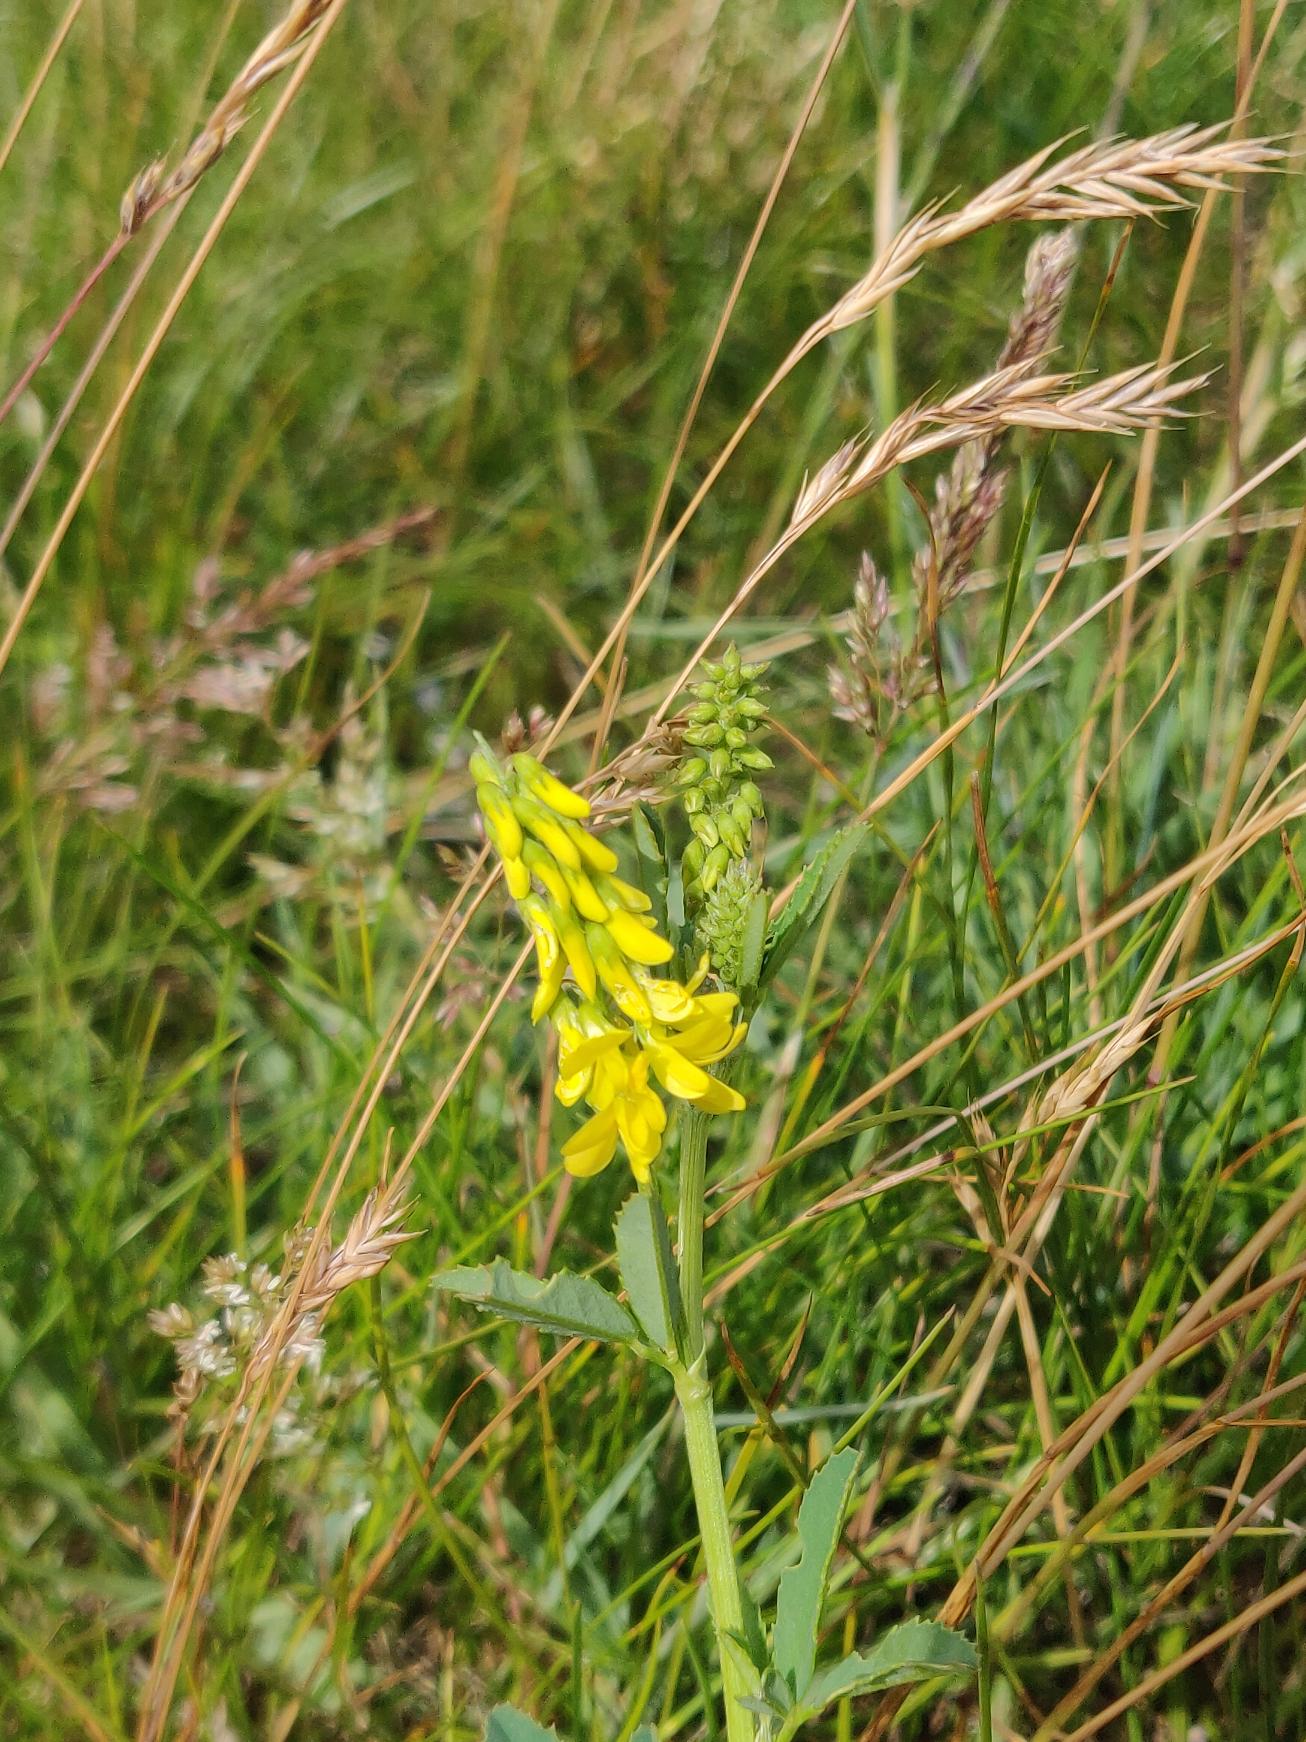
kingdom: Plantae
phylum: Tracheophyta
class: Magnoliopsida
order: Fabales
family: Fabaceae
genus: Melilotus
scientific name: Melilotus altissimus
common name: Høj stenkløver
